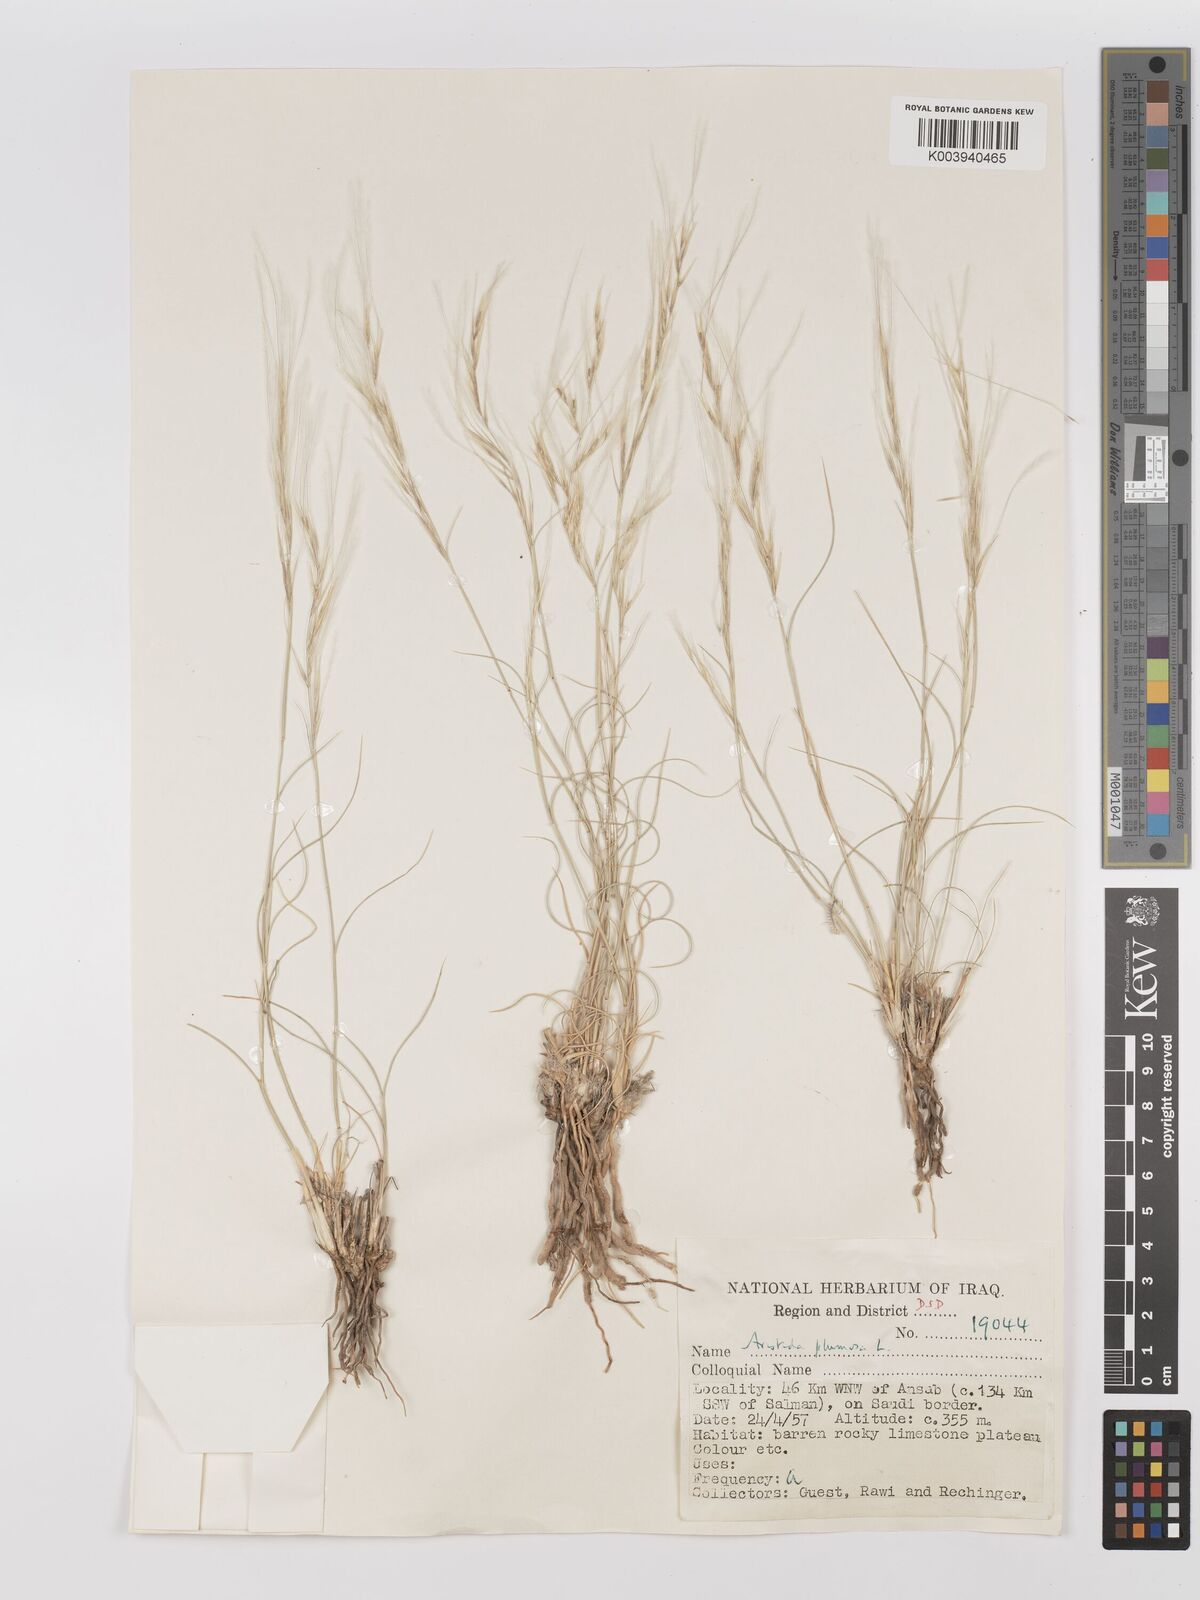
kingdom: Plantae
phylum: Tracheophyta
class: Liliopsida
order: Poales
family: Poaceae
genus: Stipagrostis
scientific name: Stipagrostis plumosa
